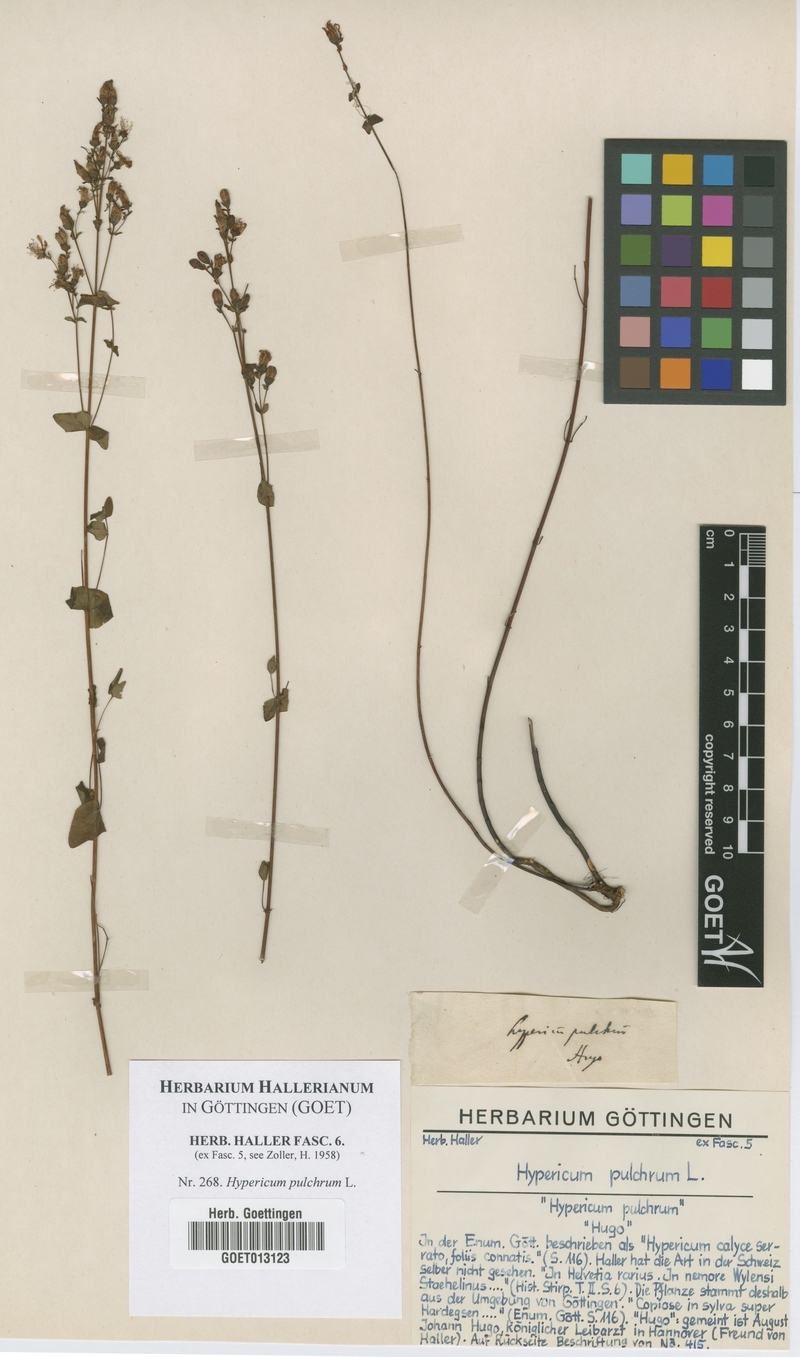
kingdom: Plantae
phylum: Tracheophyta
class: Magnoliopsida
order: Malpighiales
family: Hypericaceae
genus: Hypericum
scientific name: Hypericum pulchrum
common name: Slender st. john's-wort
